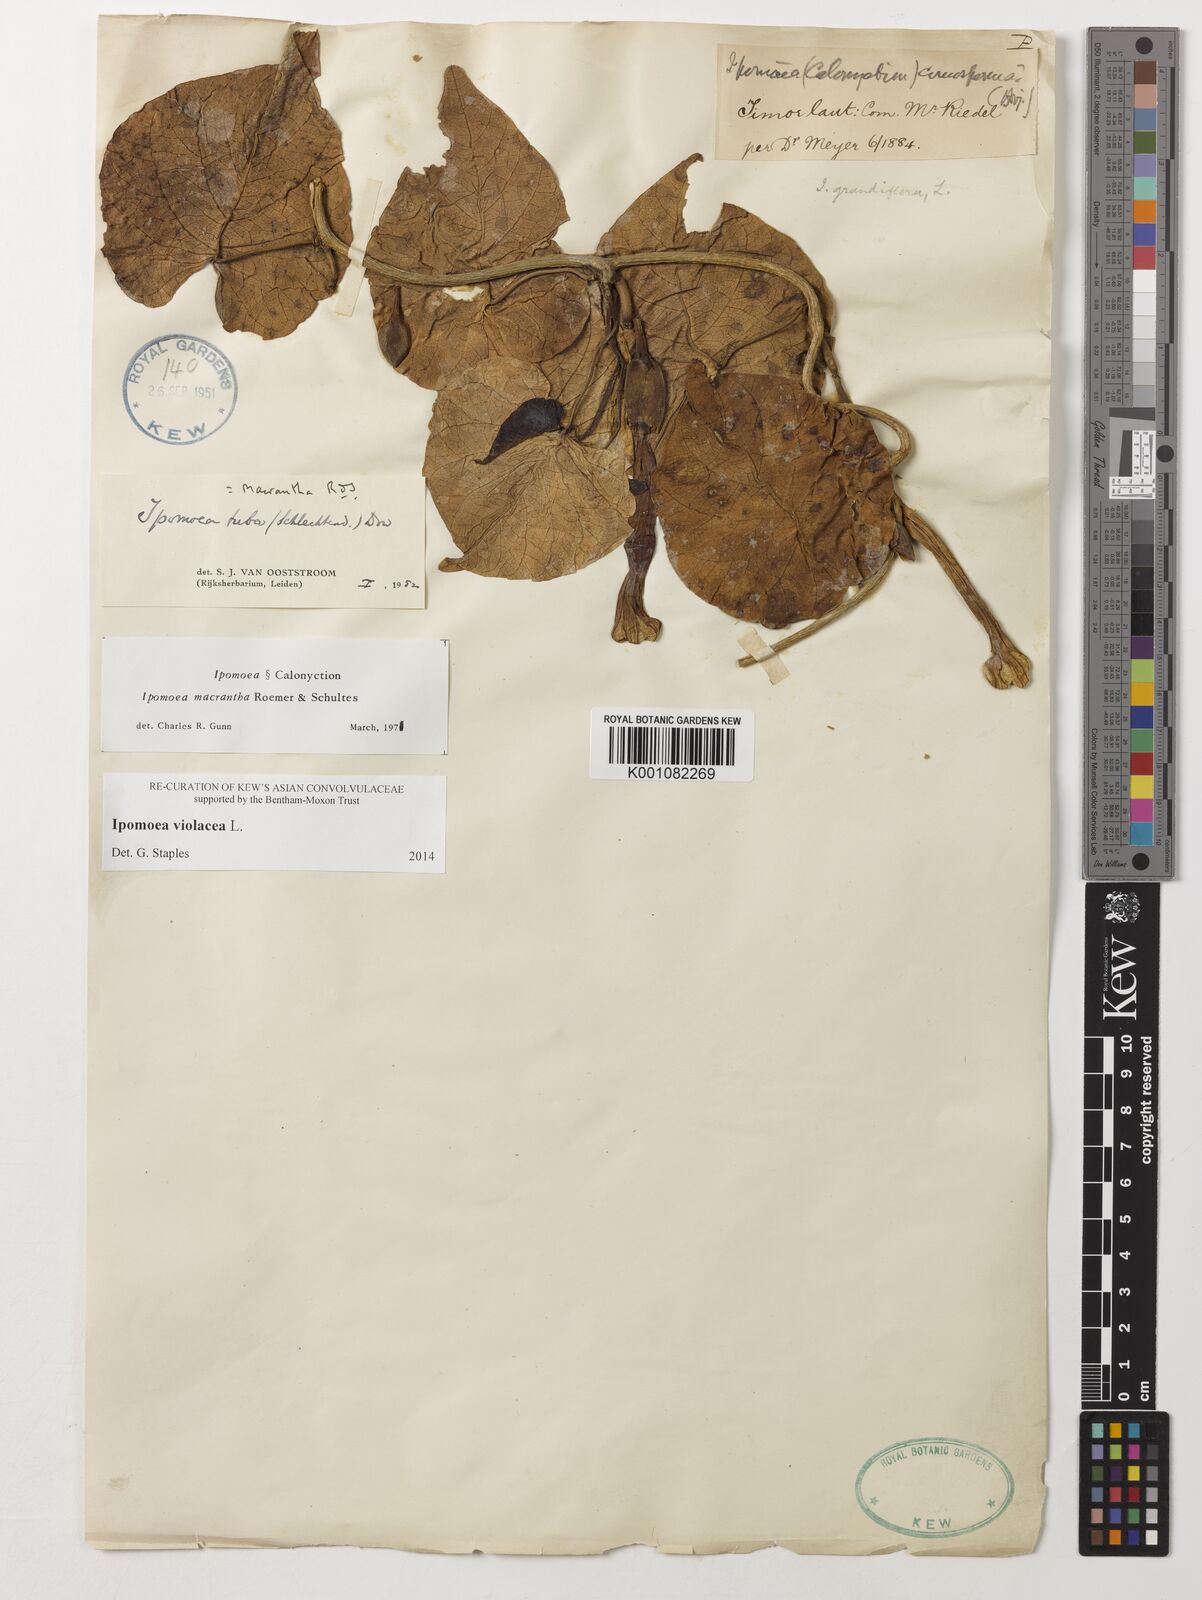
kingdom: Plantae
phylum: Tracheophyta
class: Magnoliopsida
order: Solanales
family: Convolvulaceae
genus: Ipomoea
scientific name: Ipomoea violacea
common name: Beach moonflower
